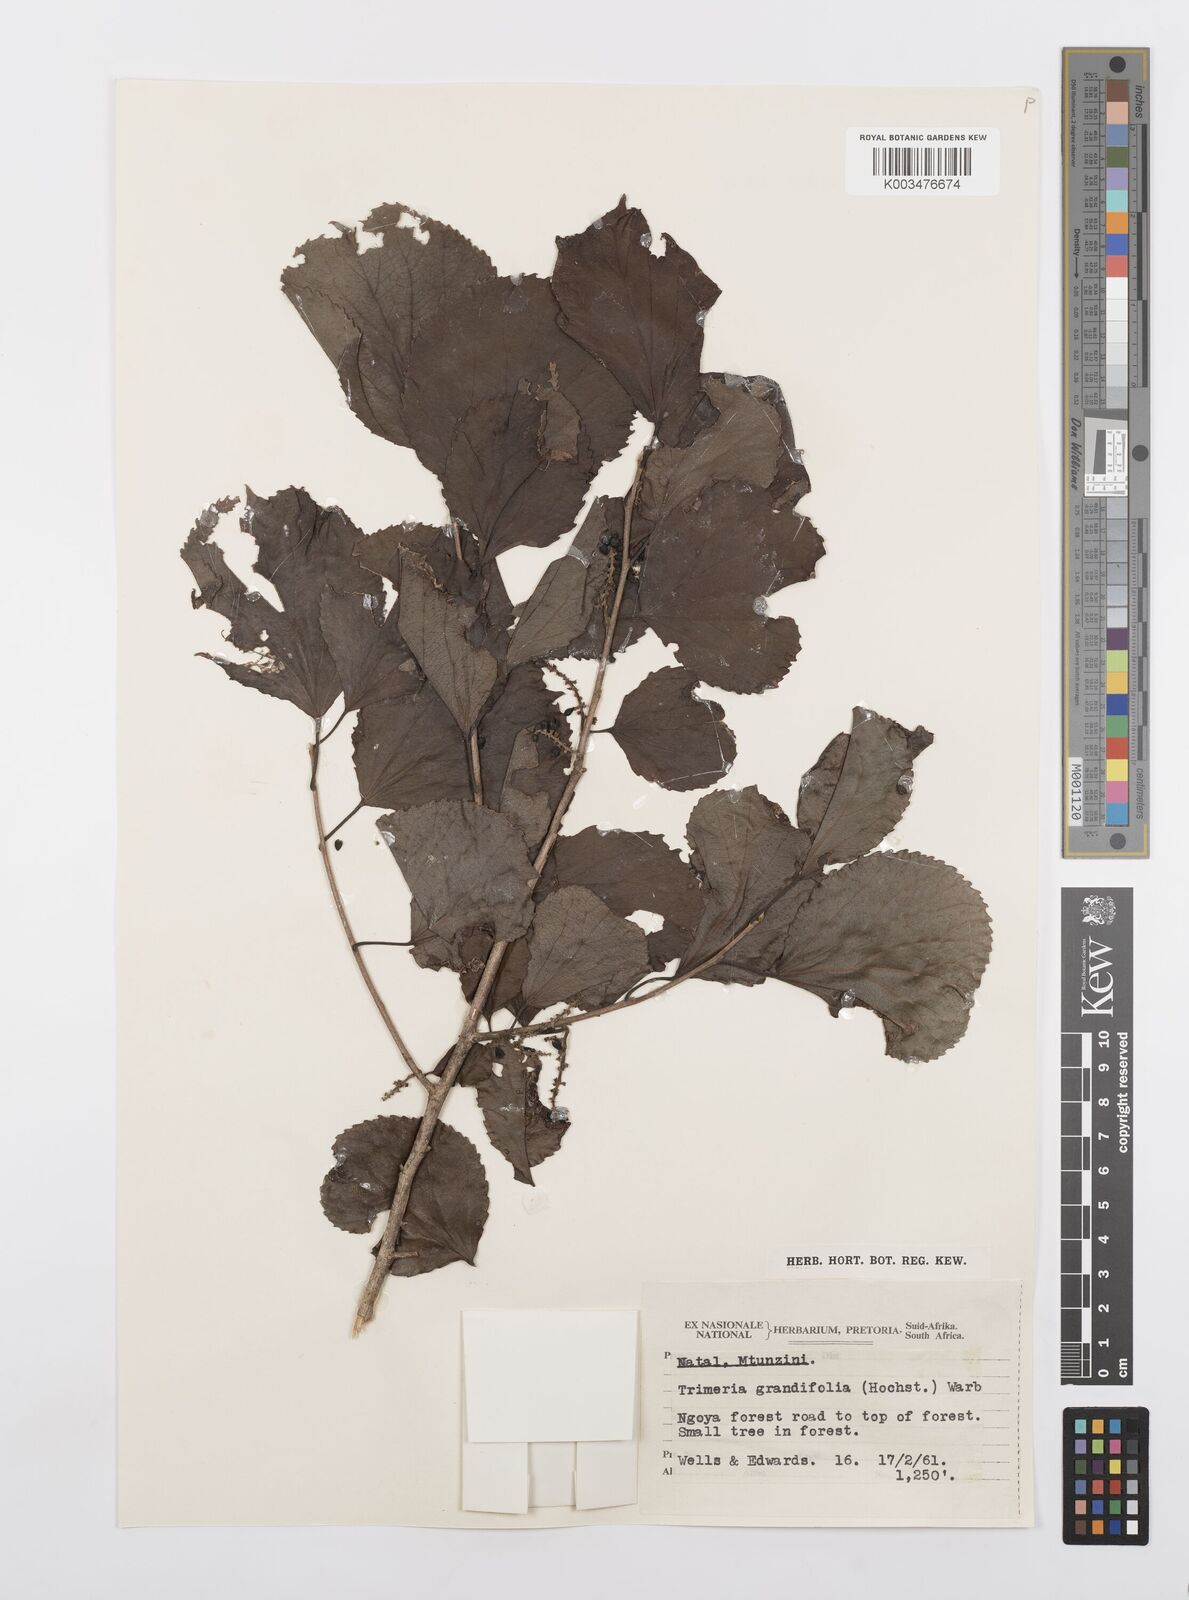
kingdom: Plantae
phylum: Tracheophyta
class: Magnoliopsida
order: Malpighiales
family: Salicaceae
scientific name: Salicaceae
